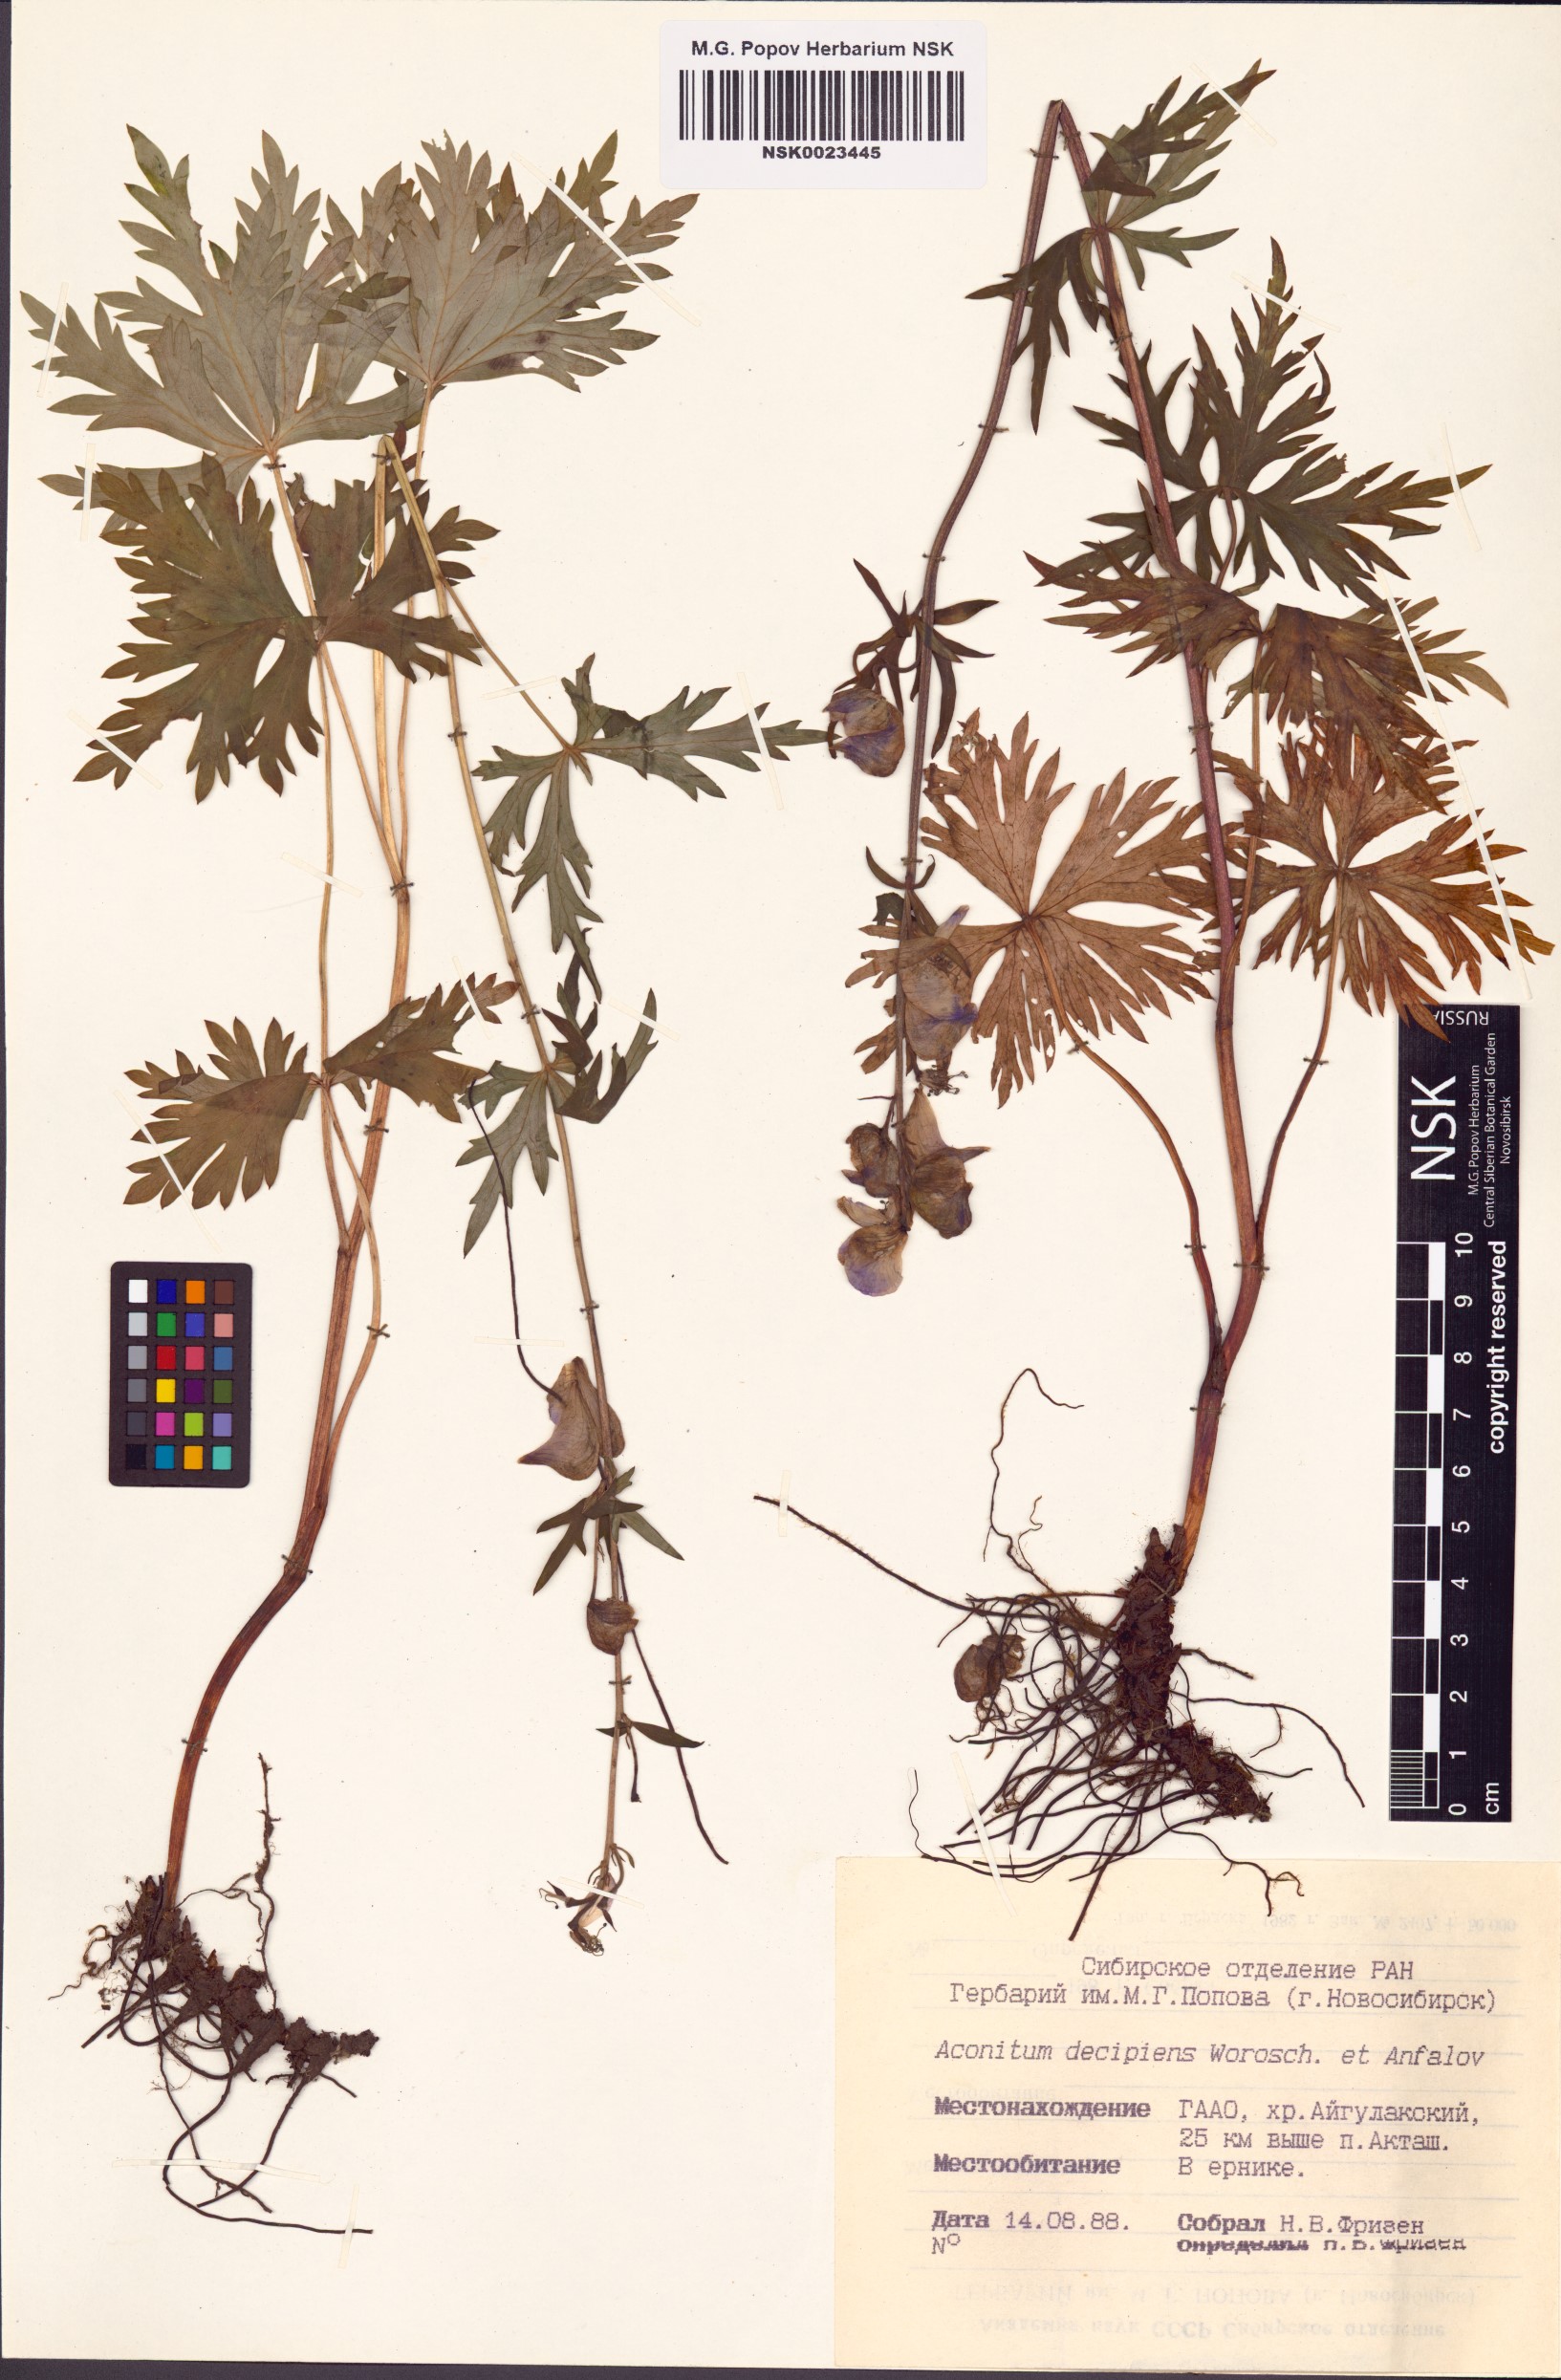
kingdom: Plantae
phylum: Tracheophyta
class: Magnoliopsida
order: Ranunculales
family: Ranunculaceae
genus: Aconitum
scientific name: Aconitum decipiens
